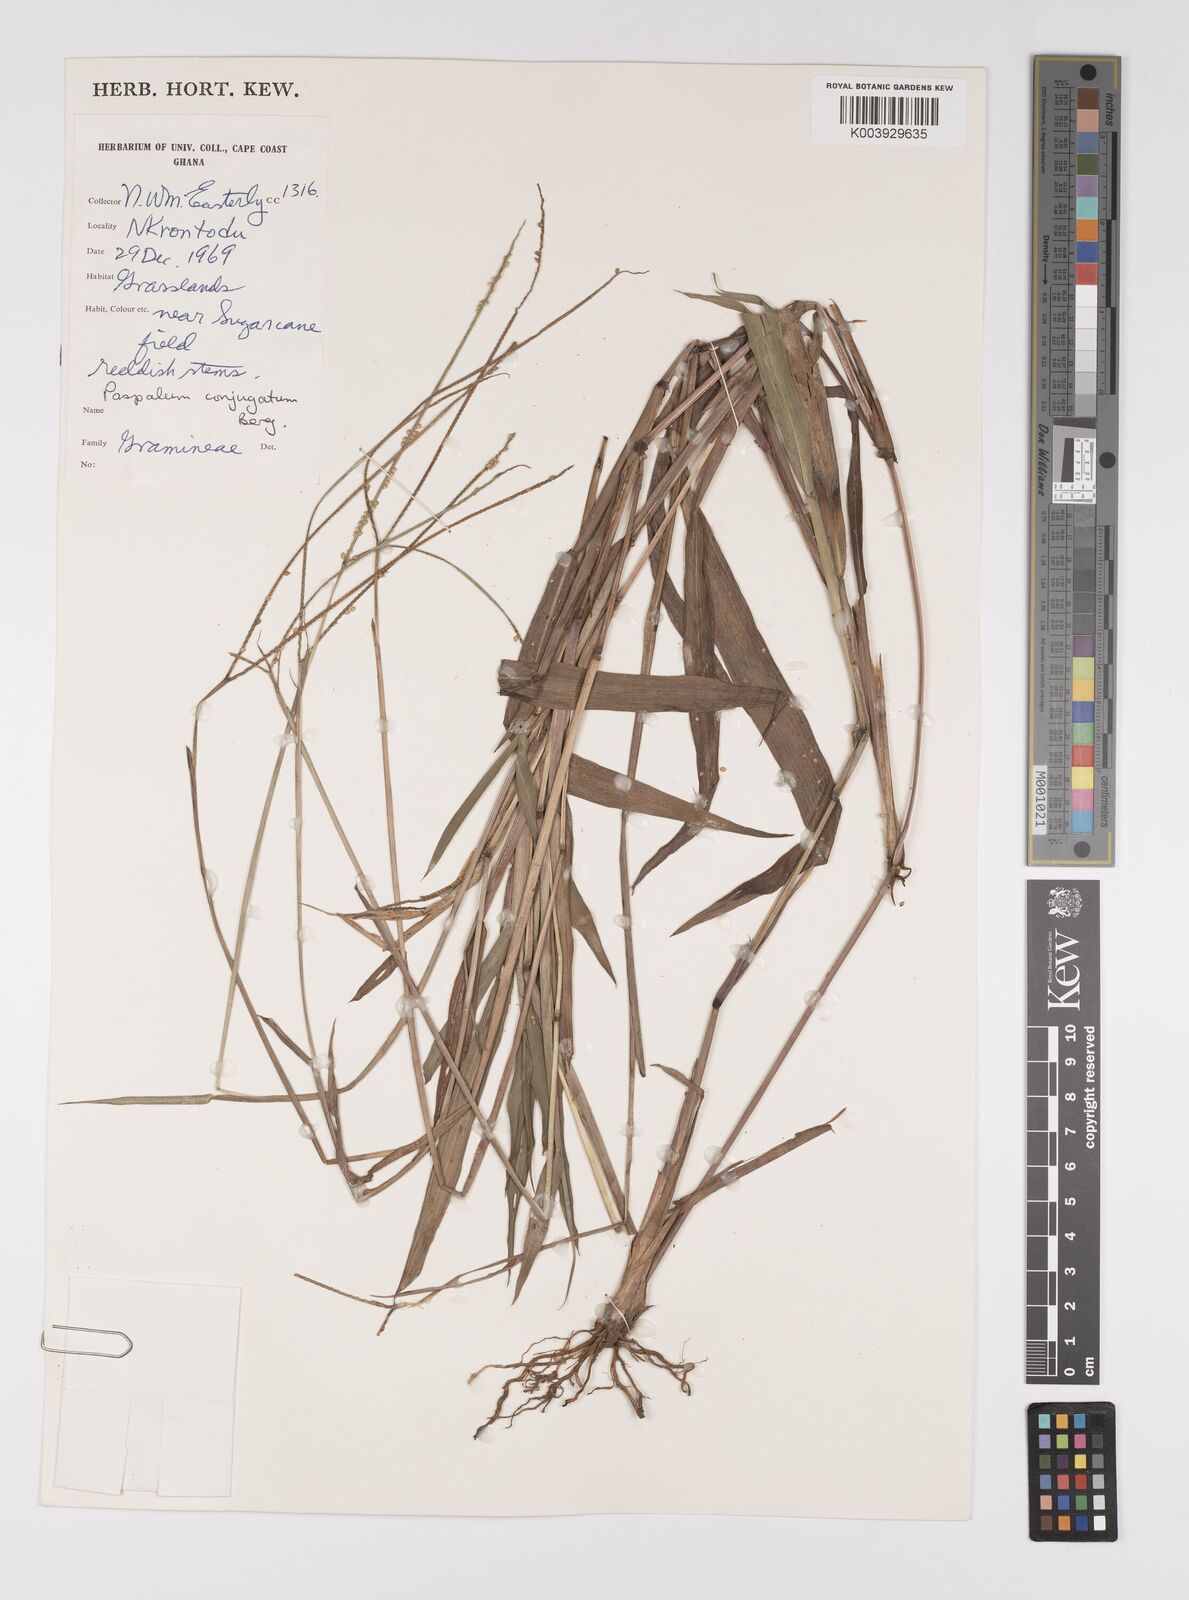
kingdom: Plantae
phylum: Tracheophyta
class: Liliopsida
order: Poales
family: Poaceae
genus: Paspalum
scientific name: Paspalum conjugatum
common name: Hilograss
